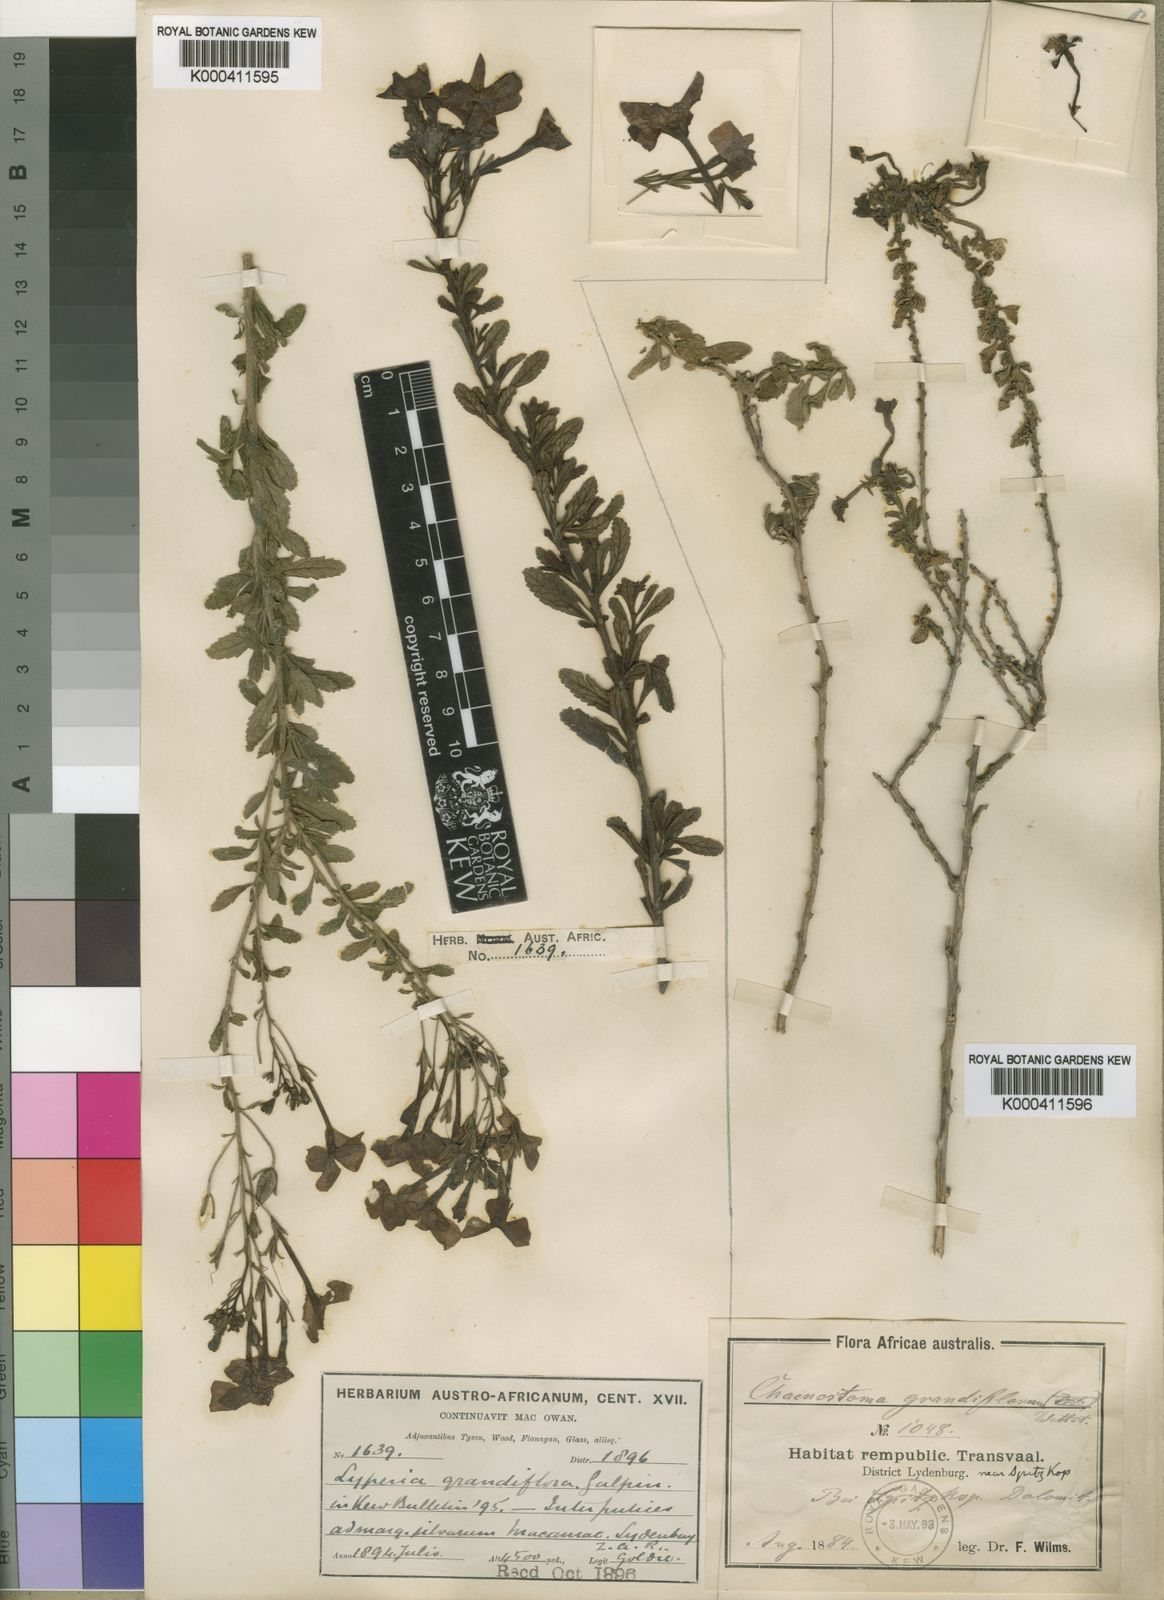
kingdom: Plantae
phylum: Tracheophyta
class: Magnoliopsida
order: Lamiales
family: Scrophulariaceae
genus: Jamesbrittenia
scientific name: Jamesbrittenia grandiflora
